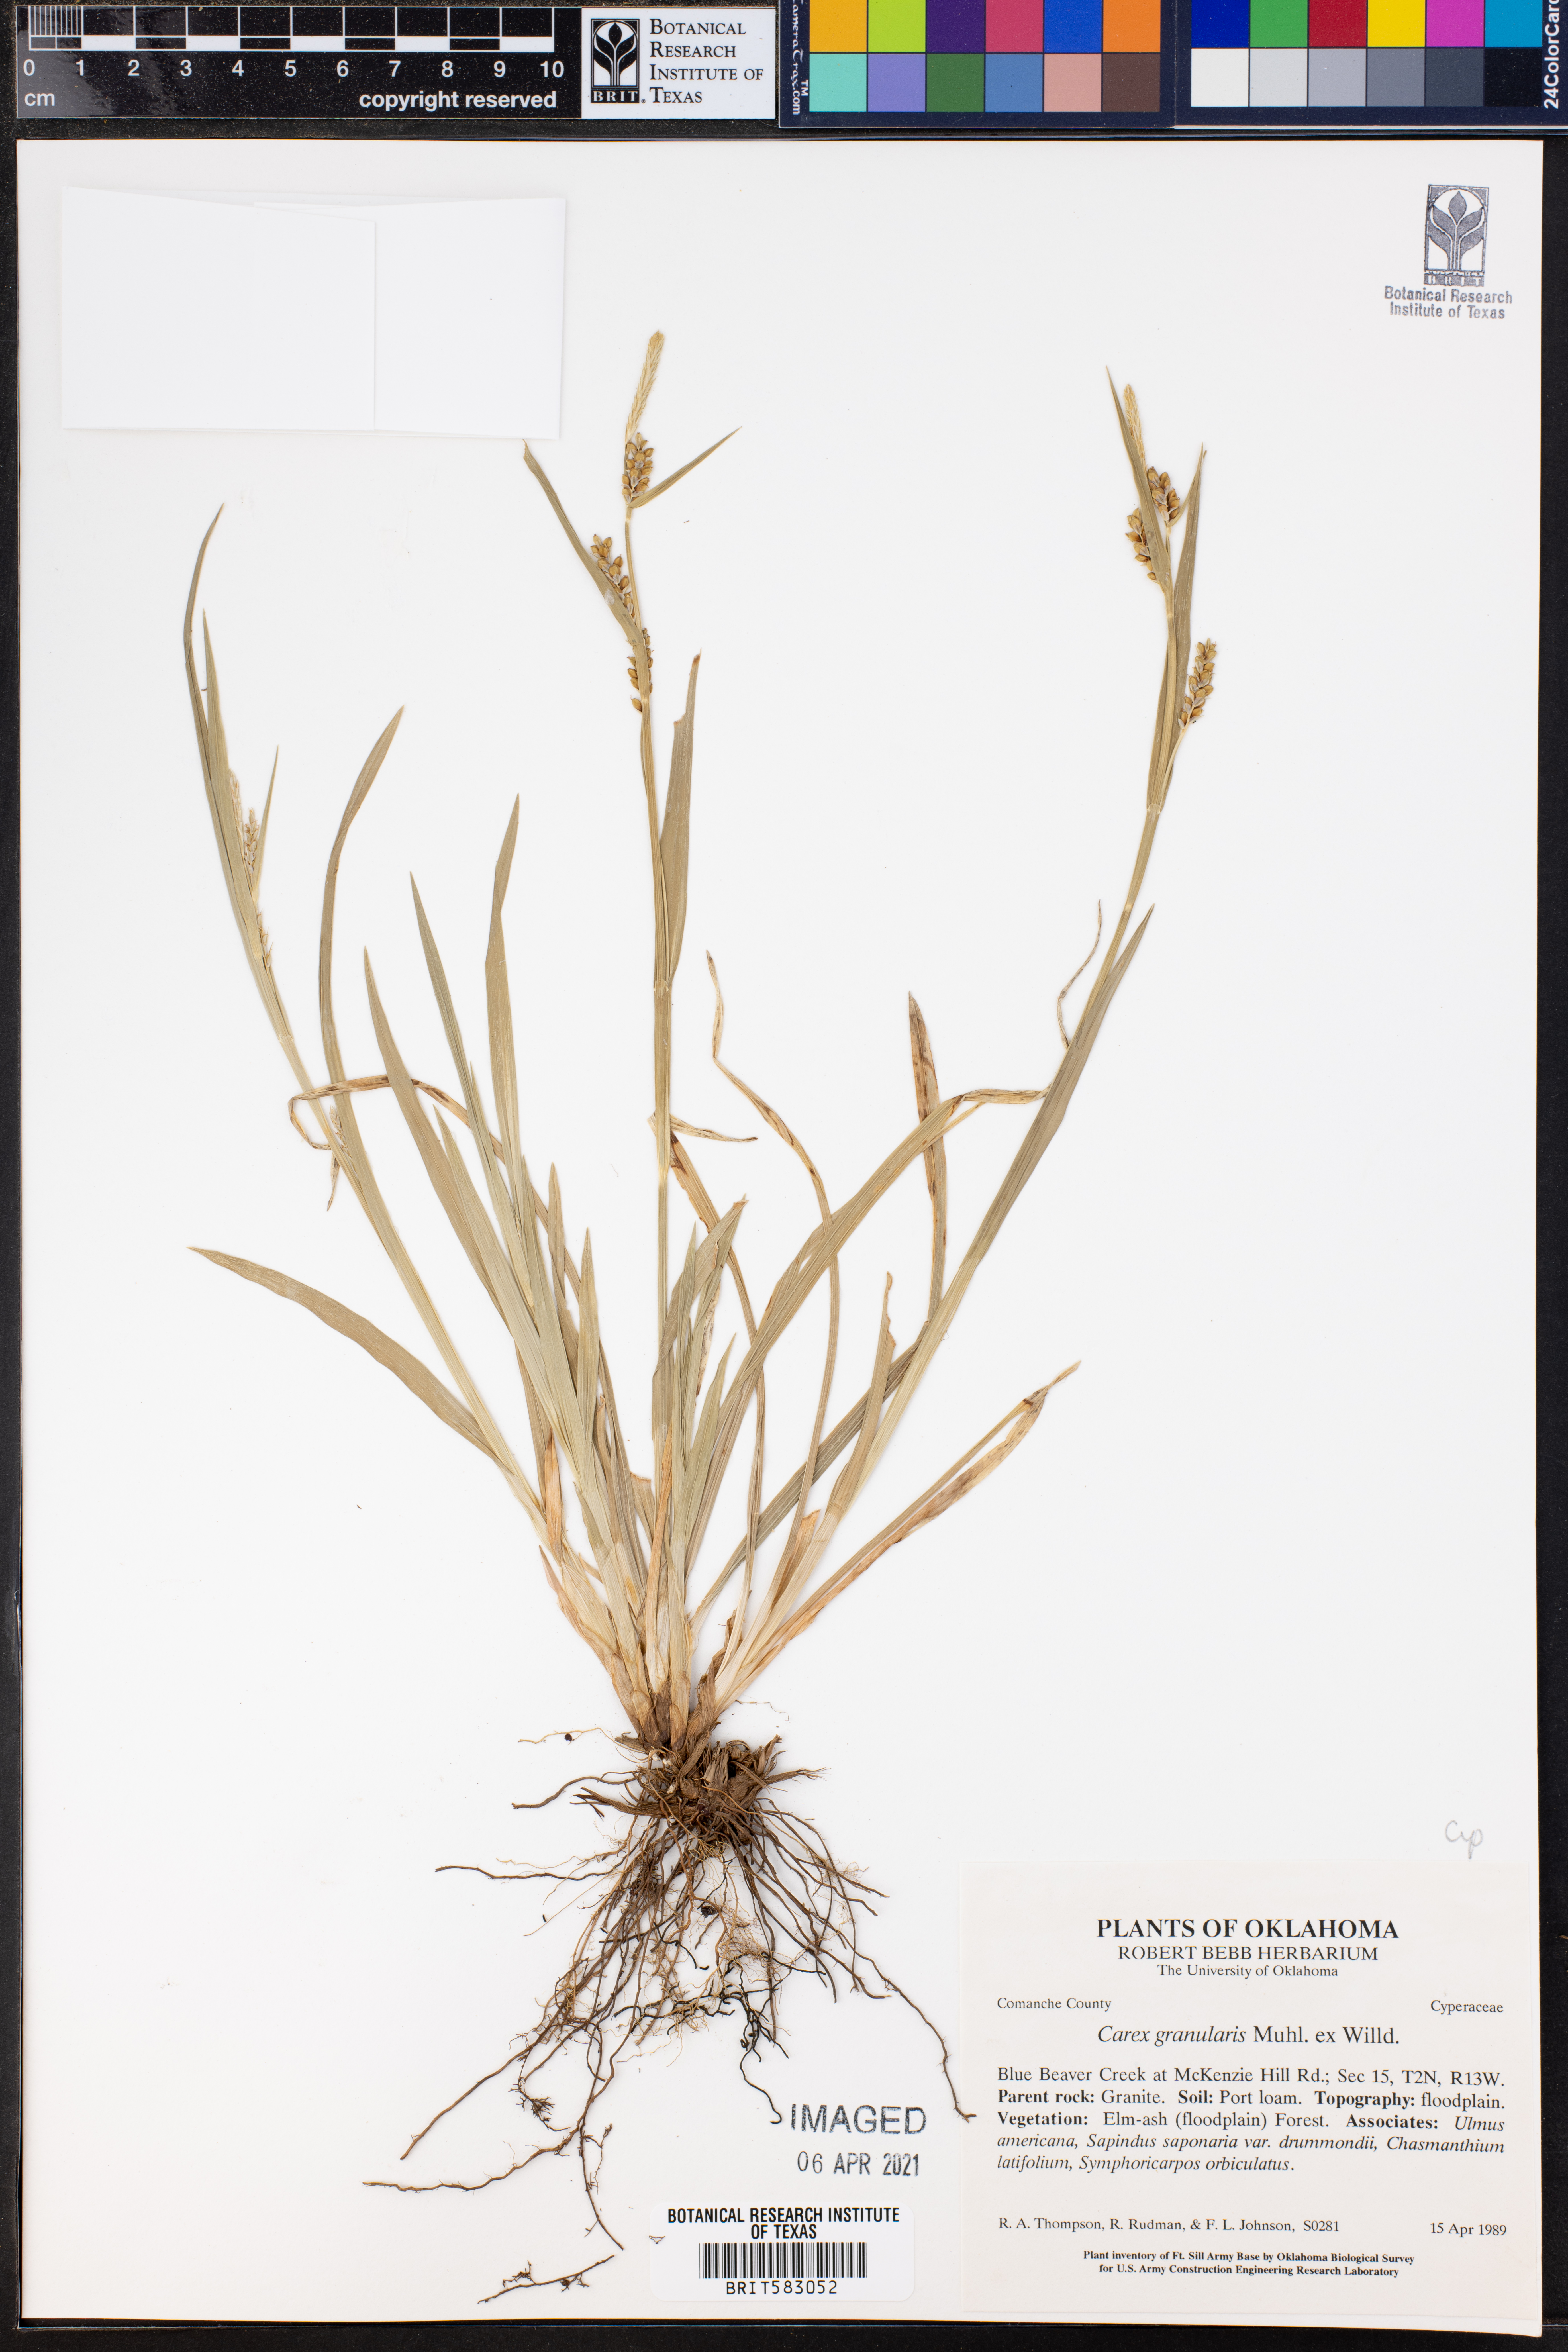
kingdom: Plantae
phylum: Tracheophyta
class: Liliopsida
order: Poales
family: Cyperaceae
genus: Carex
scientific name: Carex granularis
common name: Granular sedge
